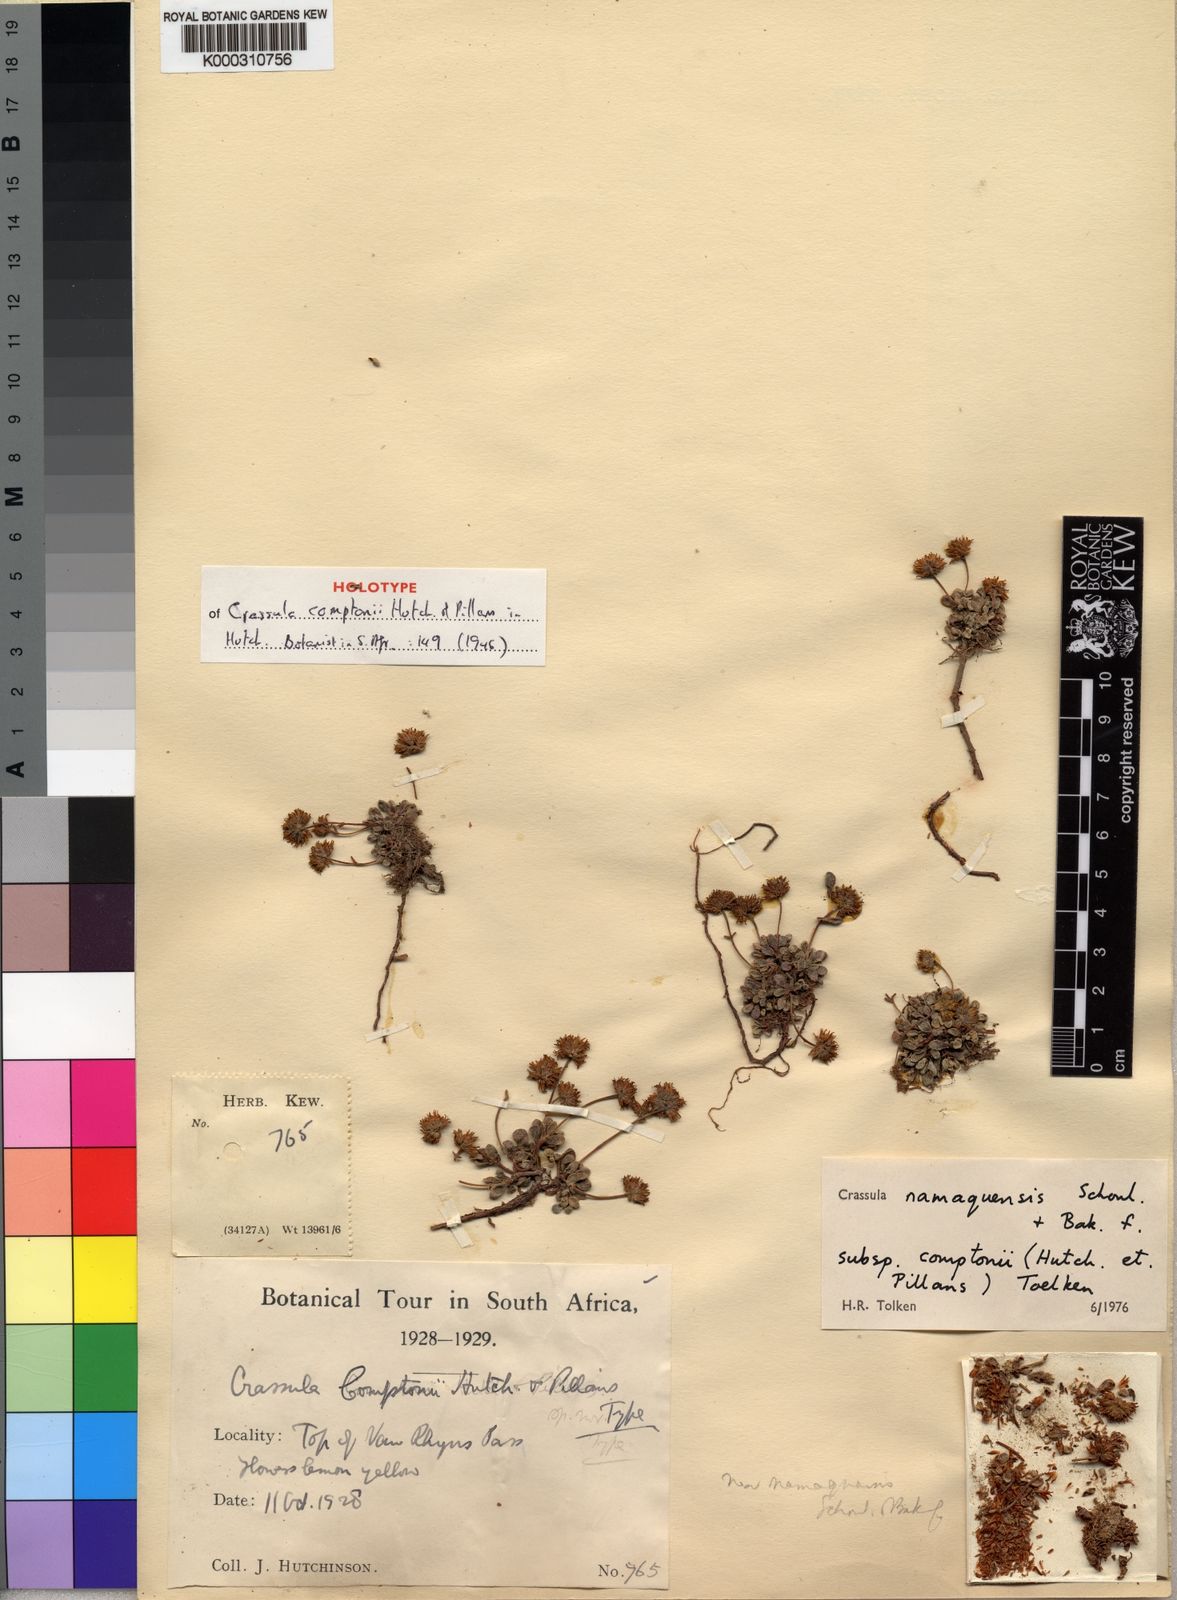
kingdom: Plantae
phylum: Tracheophyta
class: Magnoliopsida
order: Saxifragales
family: Crassulaceae
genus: Crassula
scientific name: Crassula
